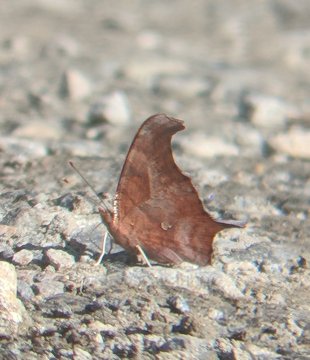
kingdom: Animalia
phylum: Arthropoda
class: Insecta
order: Lepidoptera
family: Nymphalidae
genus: Polygonia
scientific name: Polygonia interrogationis
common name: Question Mark
